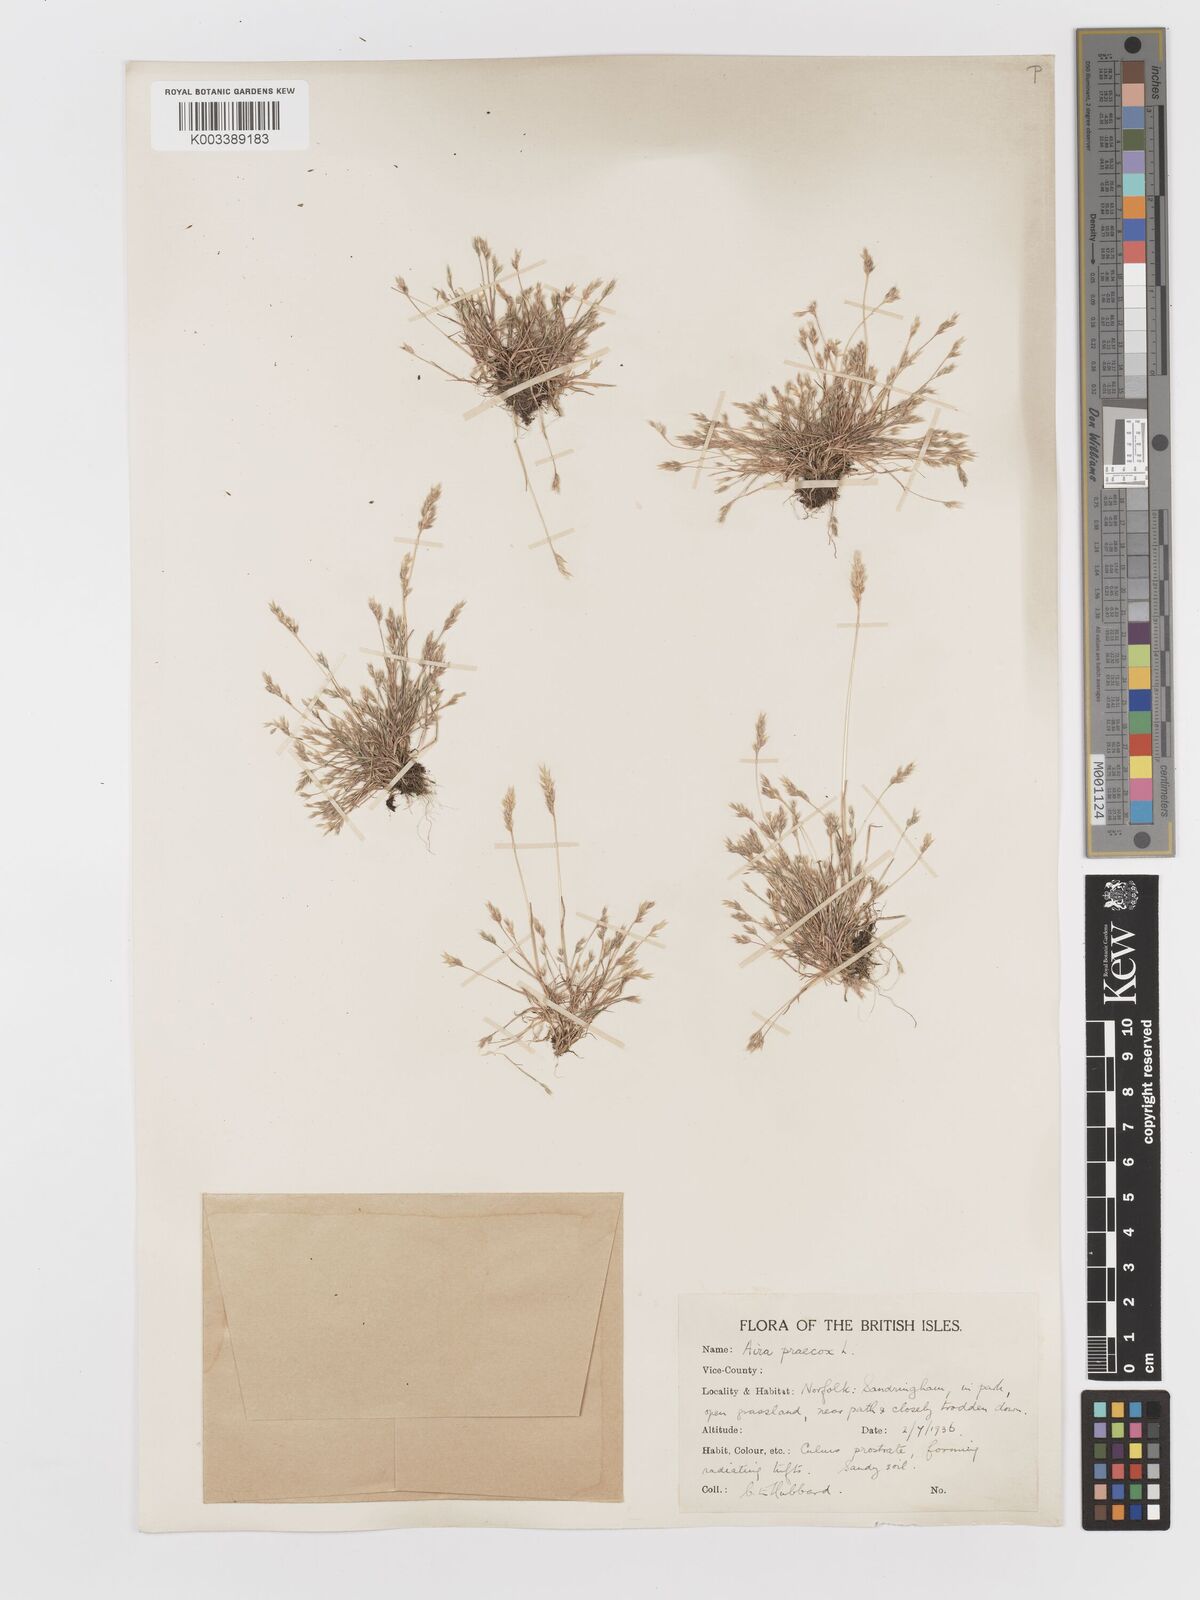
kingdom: Plantae
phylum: Tracheophyta
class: Liliopsida
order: Poales
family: Poaceae
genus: Aira
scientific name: Aira praecox
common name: Early hair-grass
